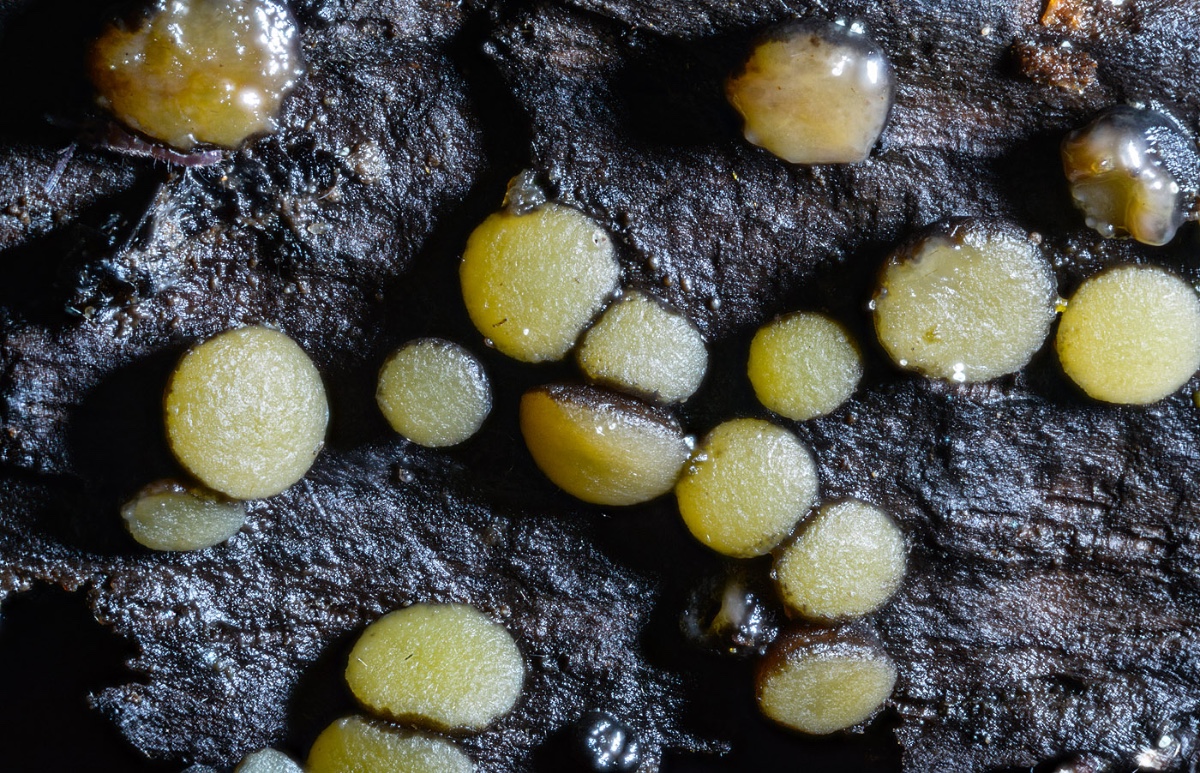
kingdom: Fungi
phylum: Ascomycota
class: Leotiomycetes
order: Helotiales
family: Vibrisseaceae
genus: Vibrissea
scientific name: Vibrissea flavovirens
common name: gulgrøn bækskive
